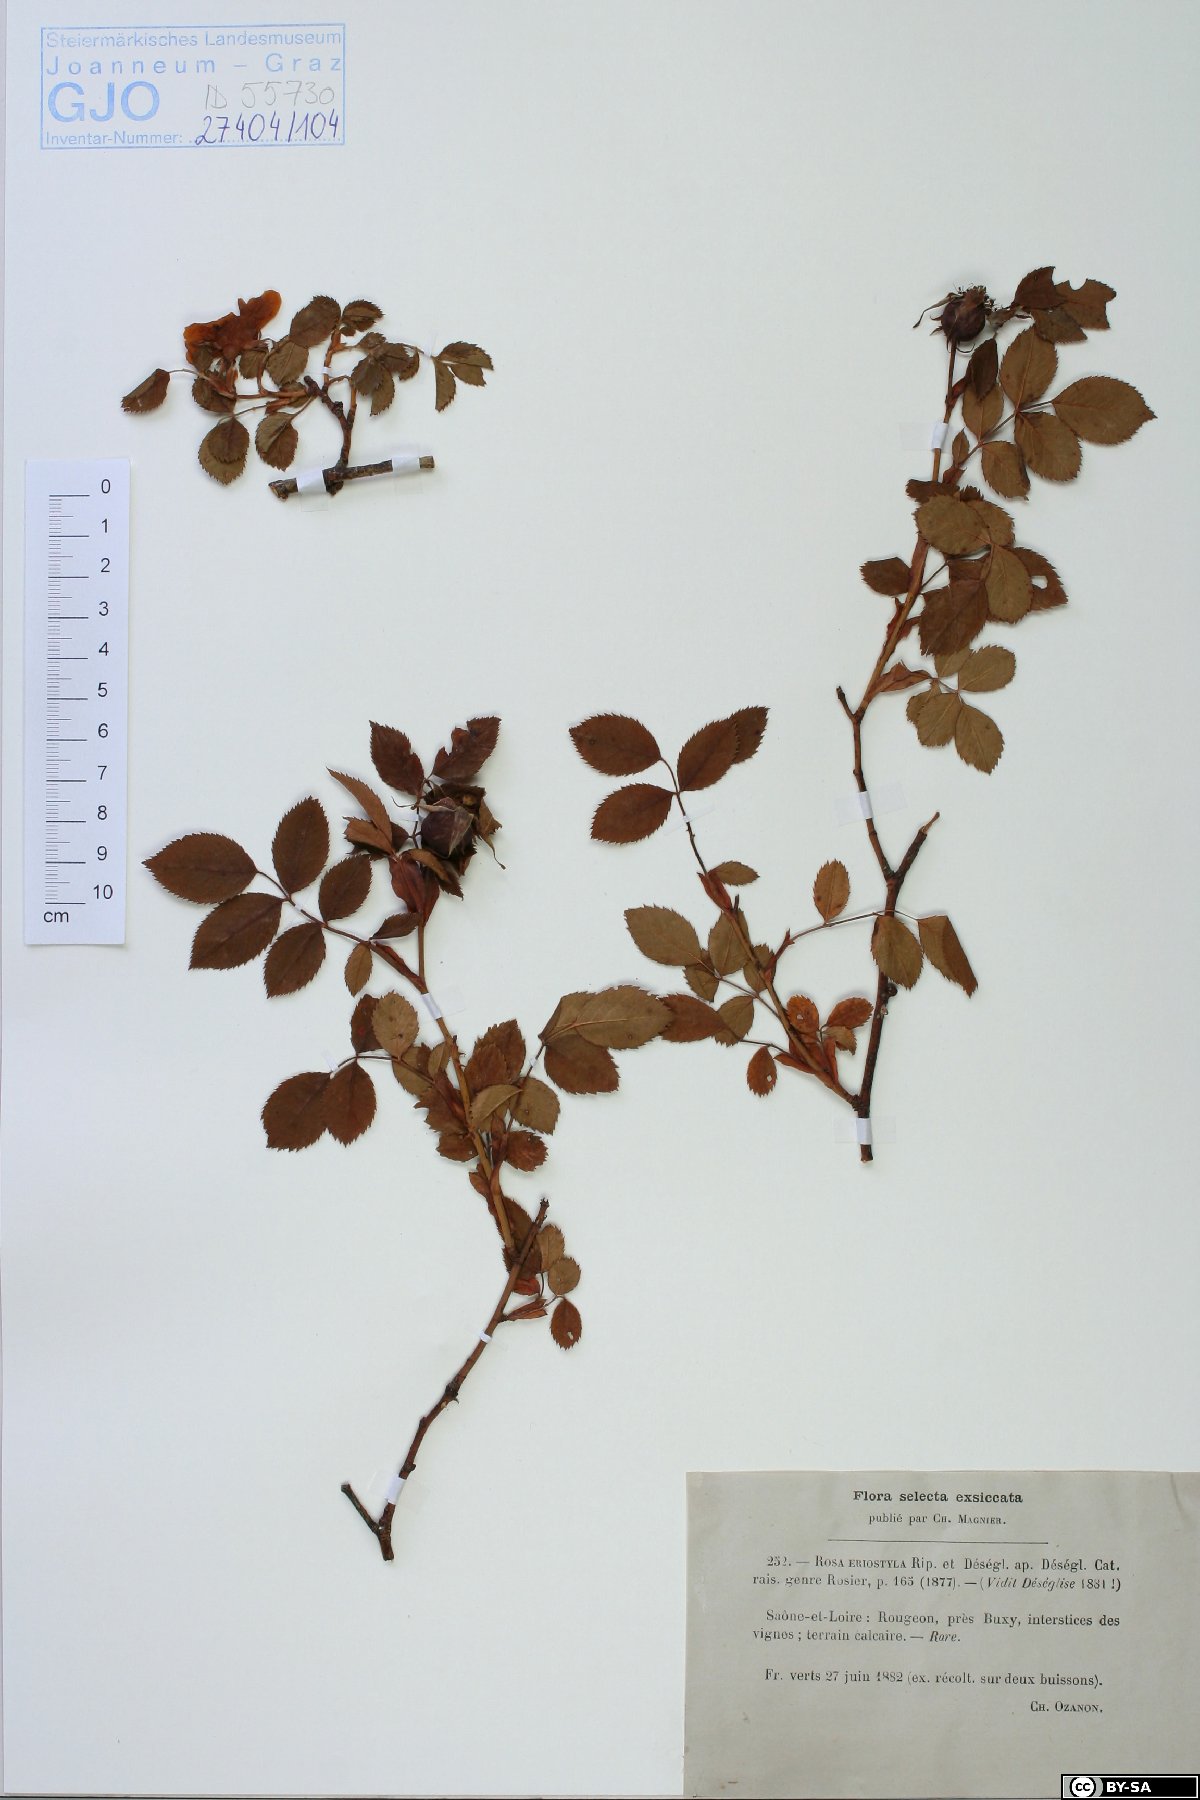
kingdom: Plantae
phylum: Tracheophyta
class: Magnoliopsida
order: Rosales
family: Rosaceae
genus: Rosa
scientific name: Rosa canina
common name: Dog rose
